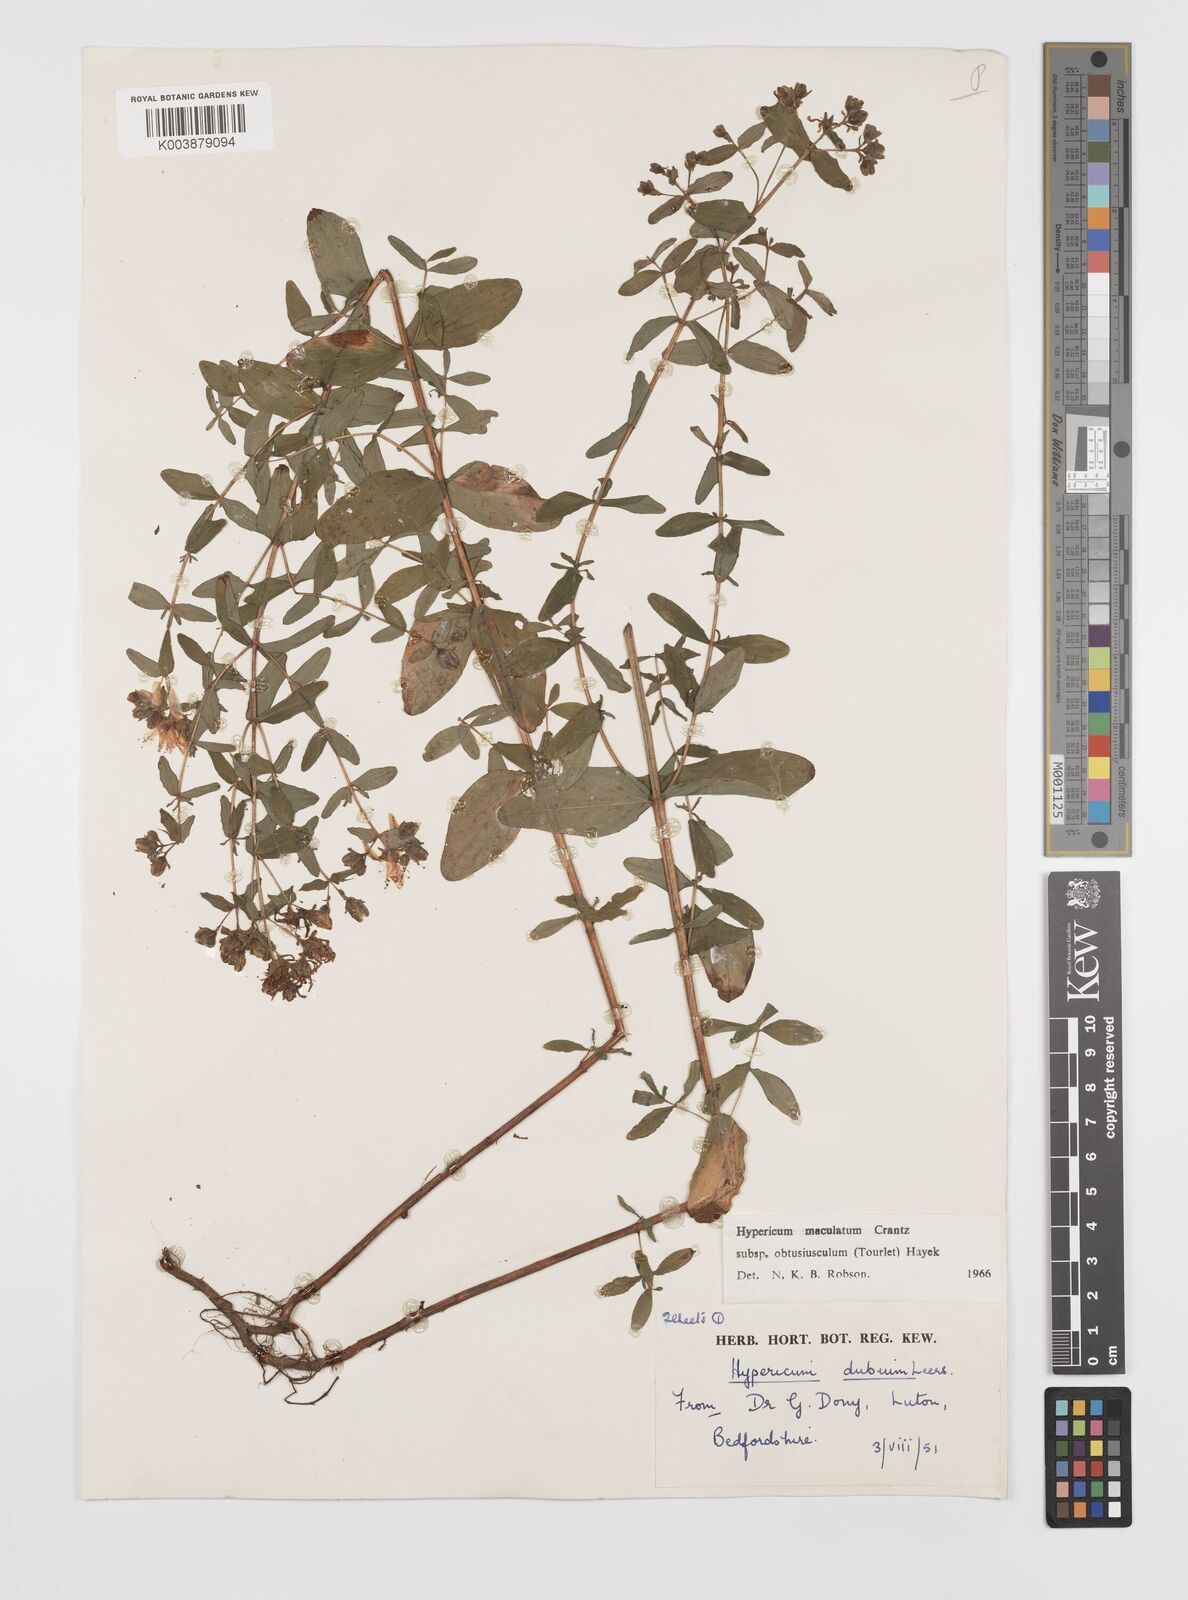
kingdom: Plantae
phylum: Tracheophyta
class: Magnoliopsida
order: Malpighiales
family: Hypericaceae
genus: Hypericum
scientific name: Hypericum dubium
